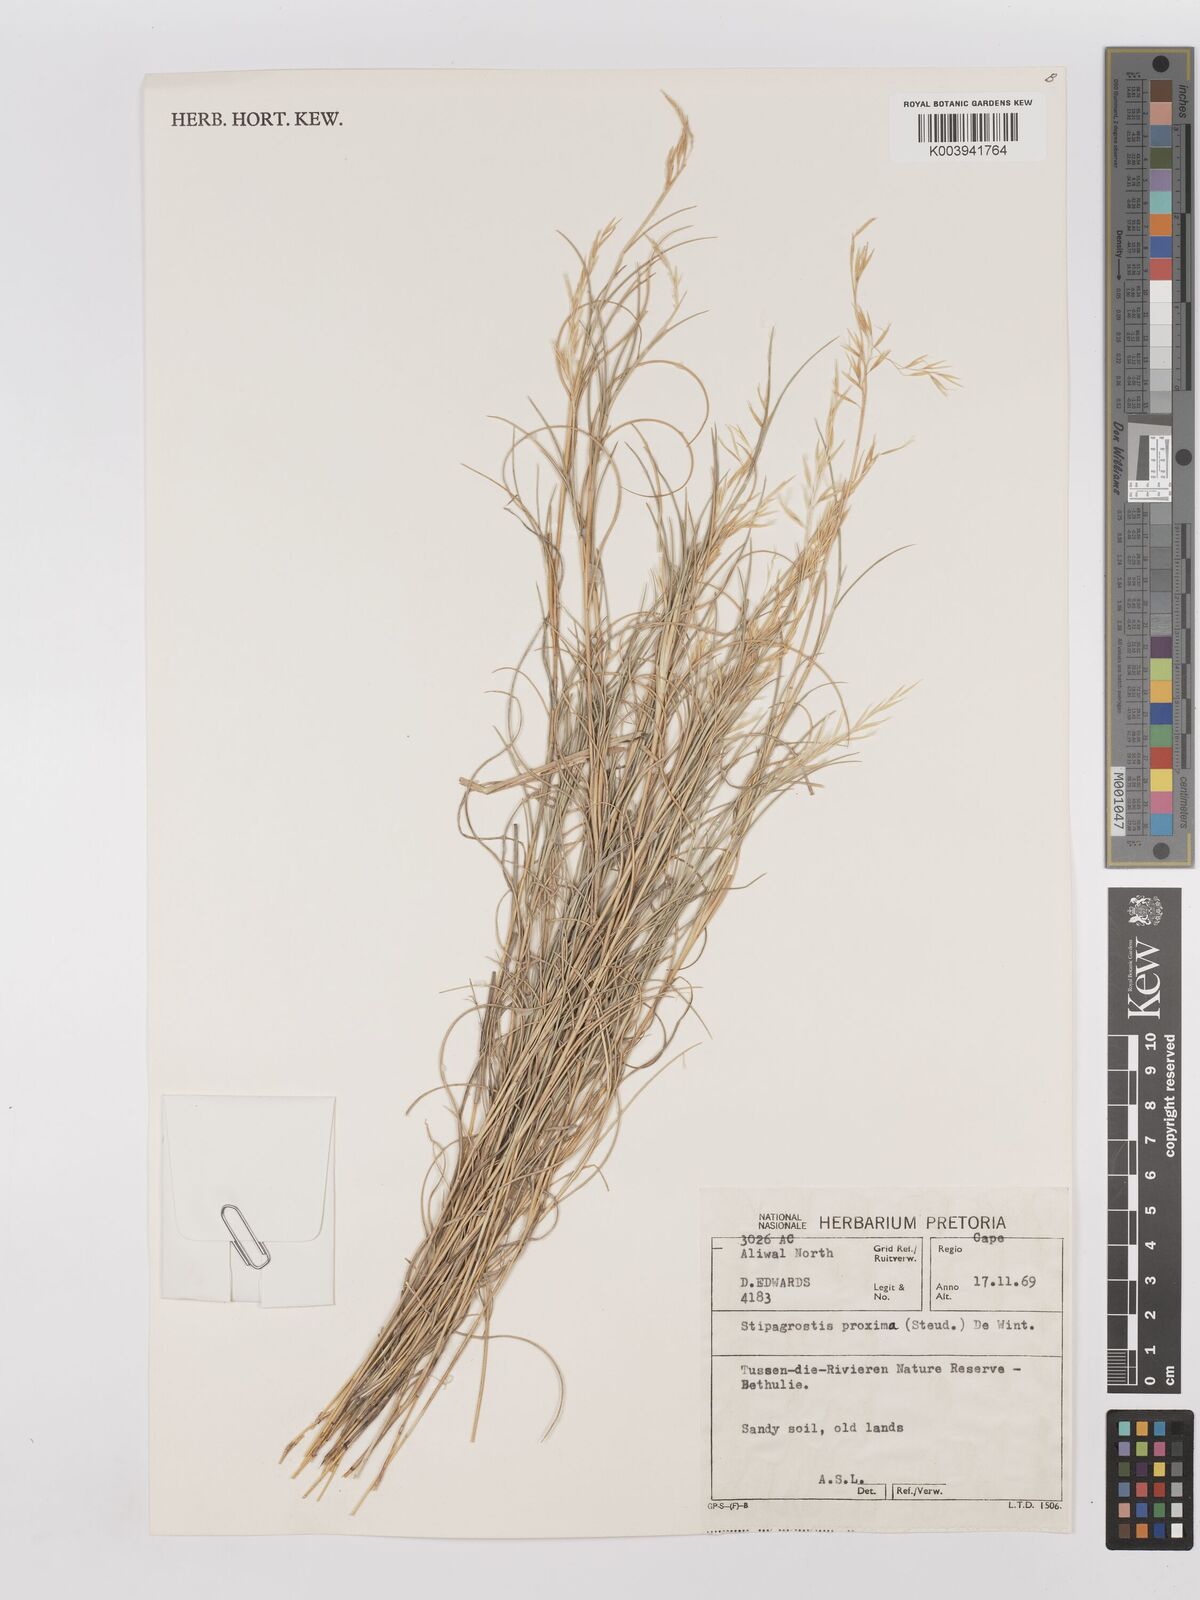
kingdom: Plantae
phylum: Tracheophyta
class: Liliopsida
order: Poales
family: Poaceae
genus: Stipagrostis
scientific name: Stipagrostis proxima
